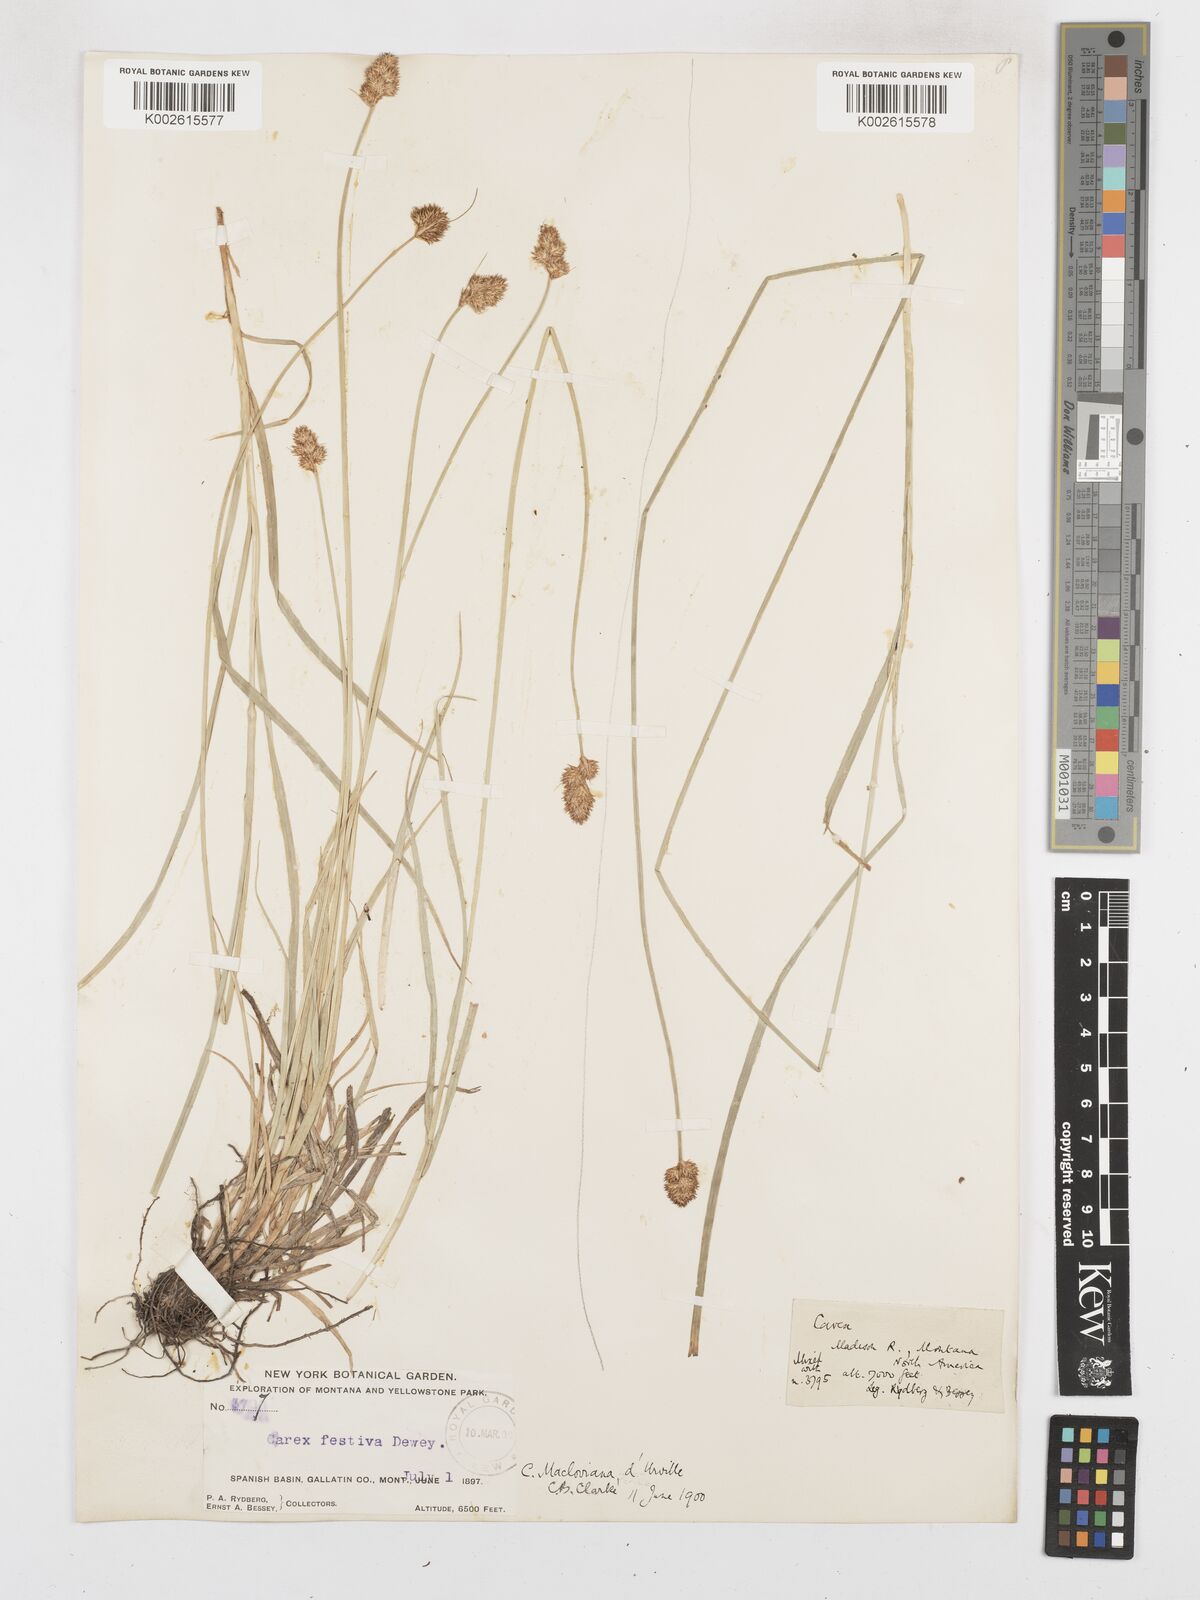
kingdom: Plantae
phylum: Tracheophyta
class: Liliopsida
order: Poales
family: Cyperaceae
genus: Carex
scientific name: Carex macloviana
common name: Falkland island sedge
